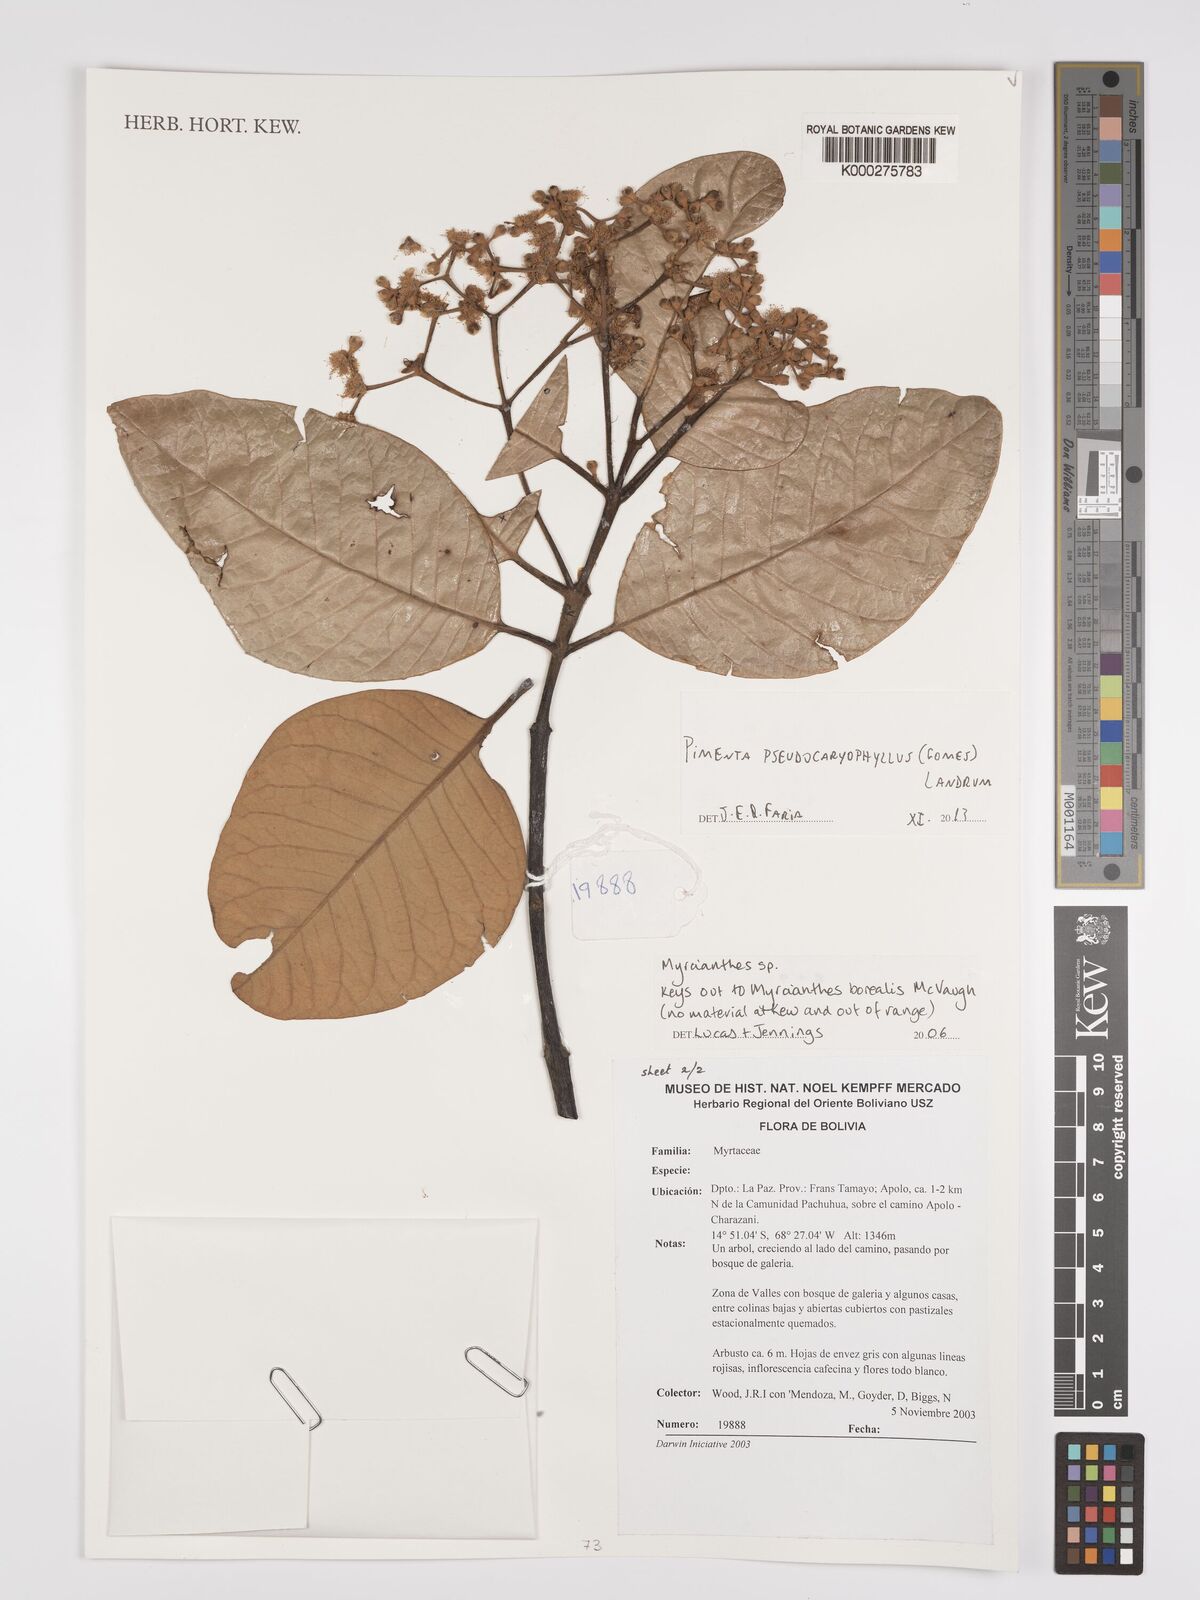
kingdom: Plantae
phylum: Tracheophyta
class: Magnoliopsida
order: Myrtales
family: Myrtaceae
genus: Pimenta
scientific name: Pimenta pseudocaryophyllus
